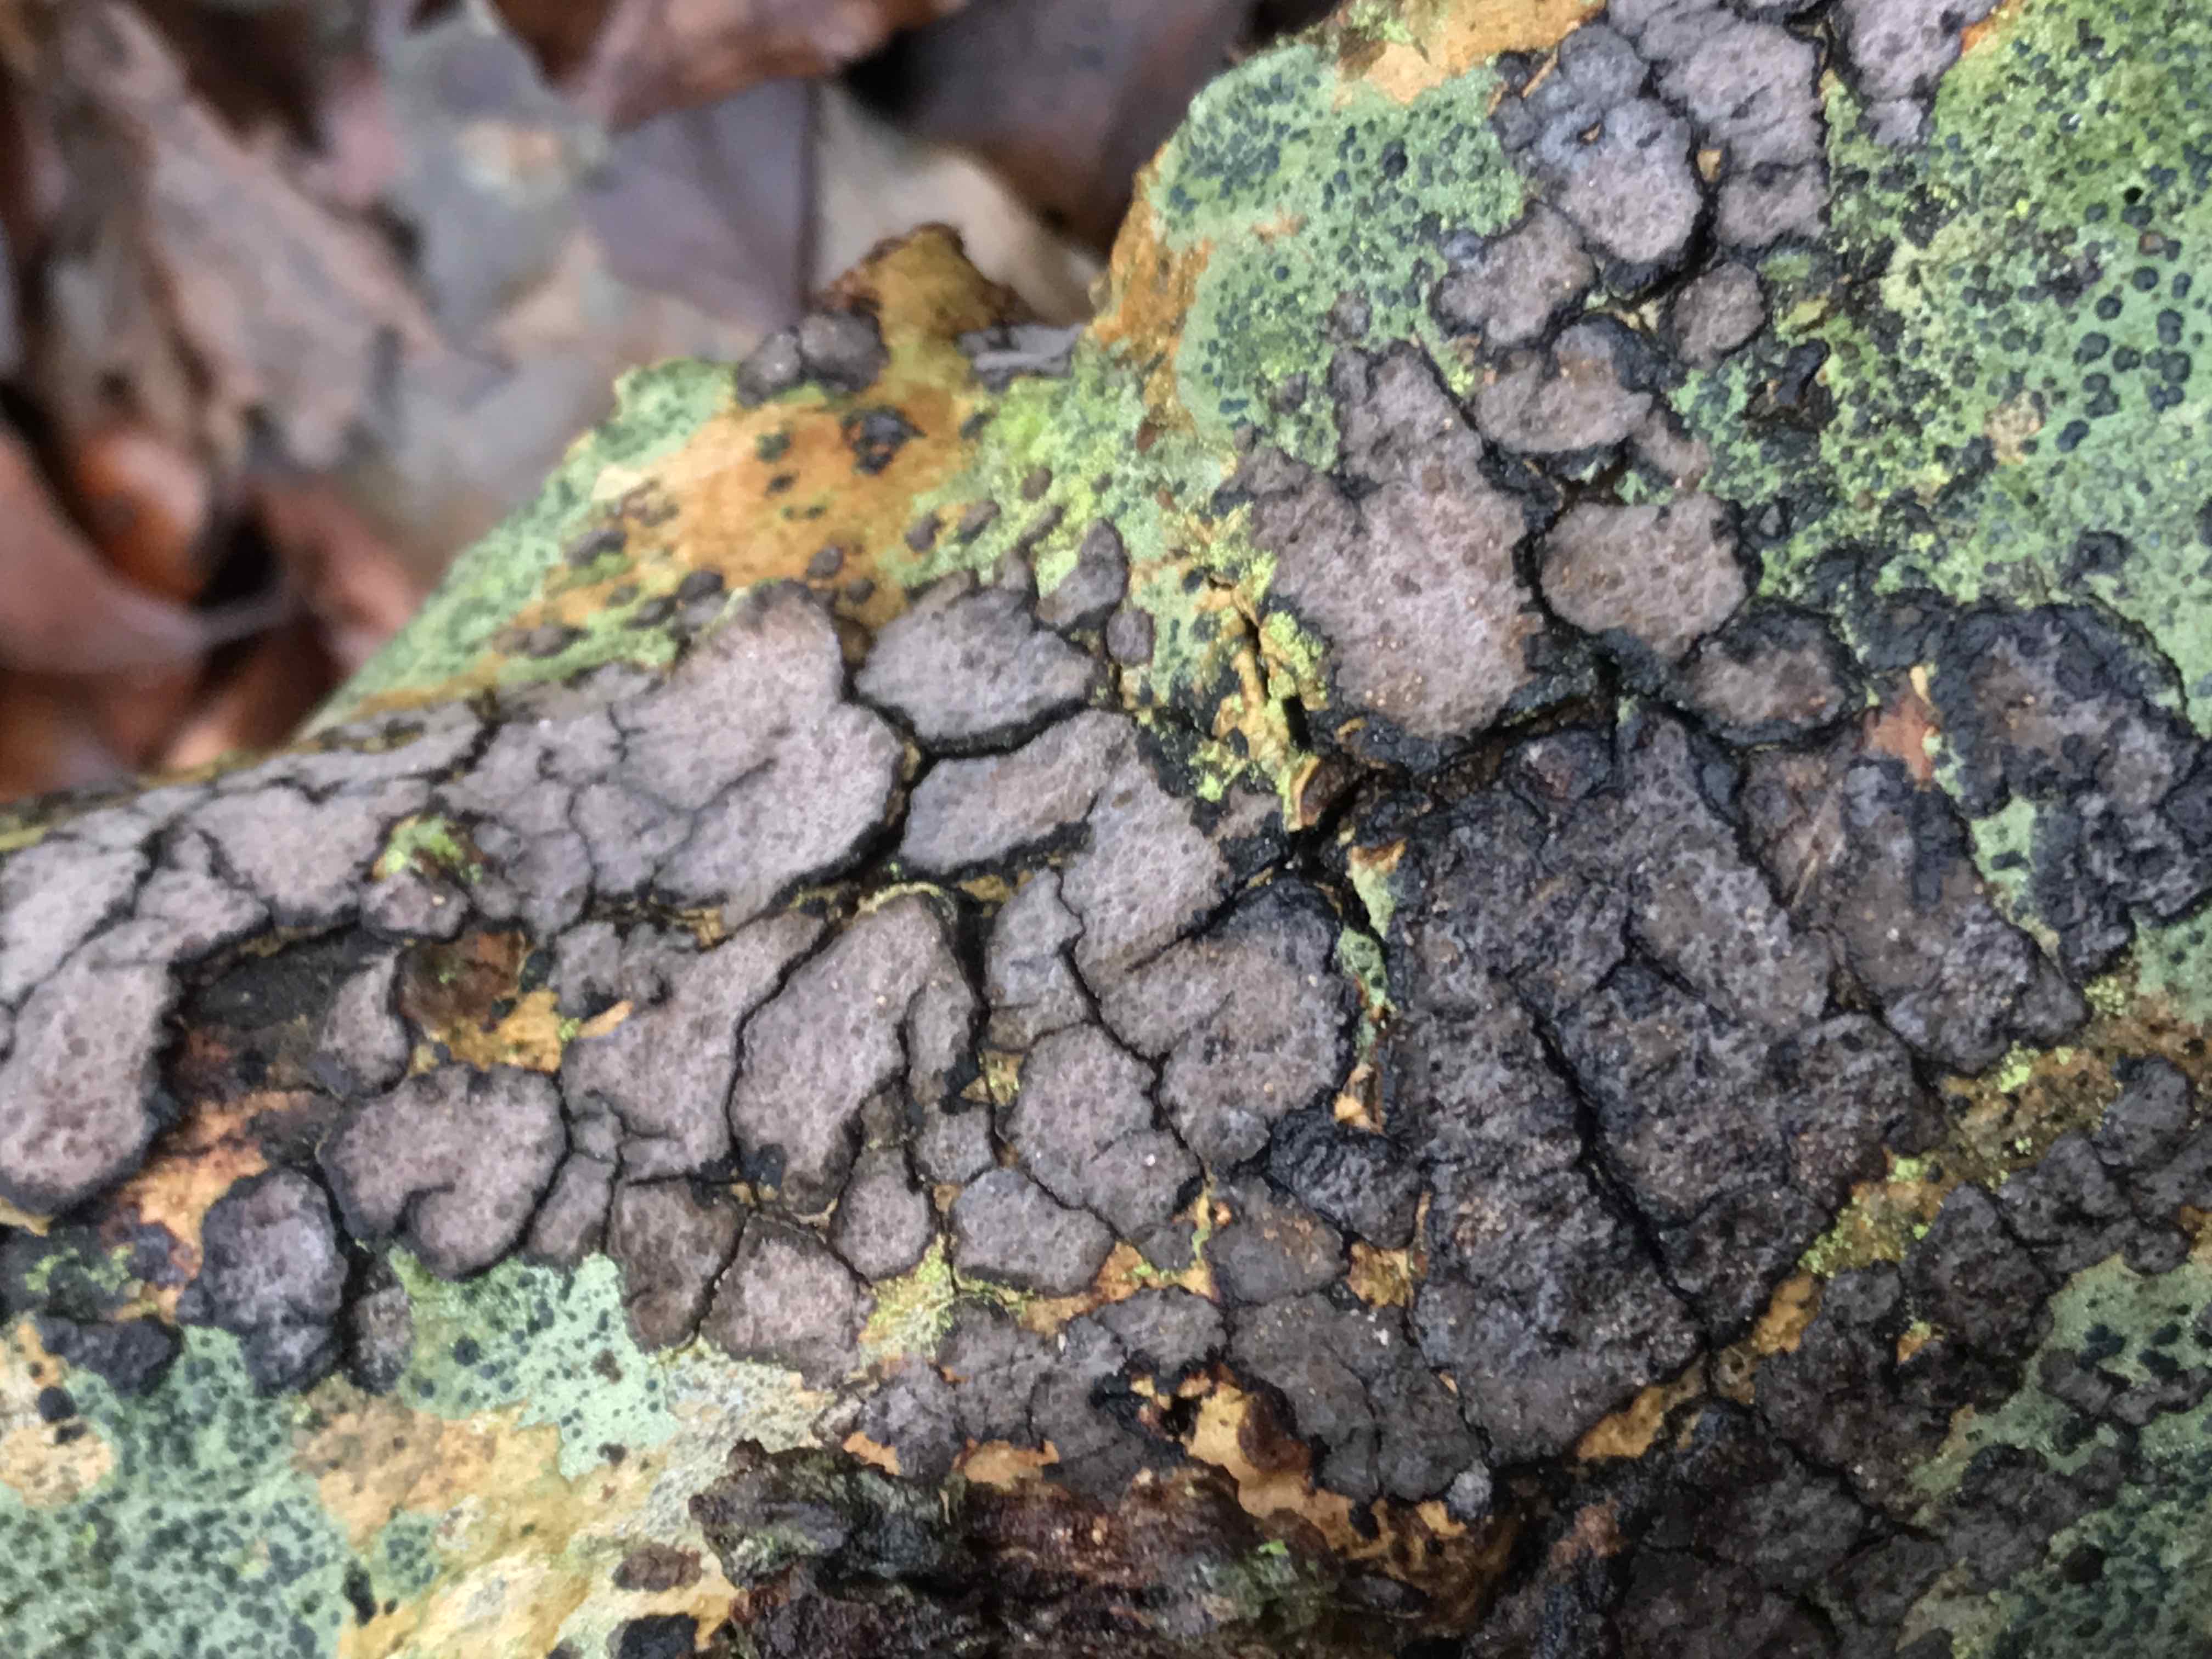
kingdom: Fungi
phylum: Basidiomycota
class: Agaricomycetes
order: Russulales
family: Peniophoraceae
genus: Peniophora
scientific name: Peniophora limitata
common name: mørkrandet voksskind
